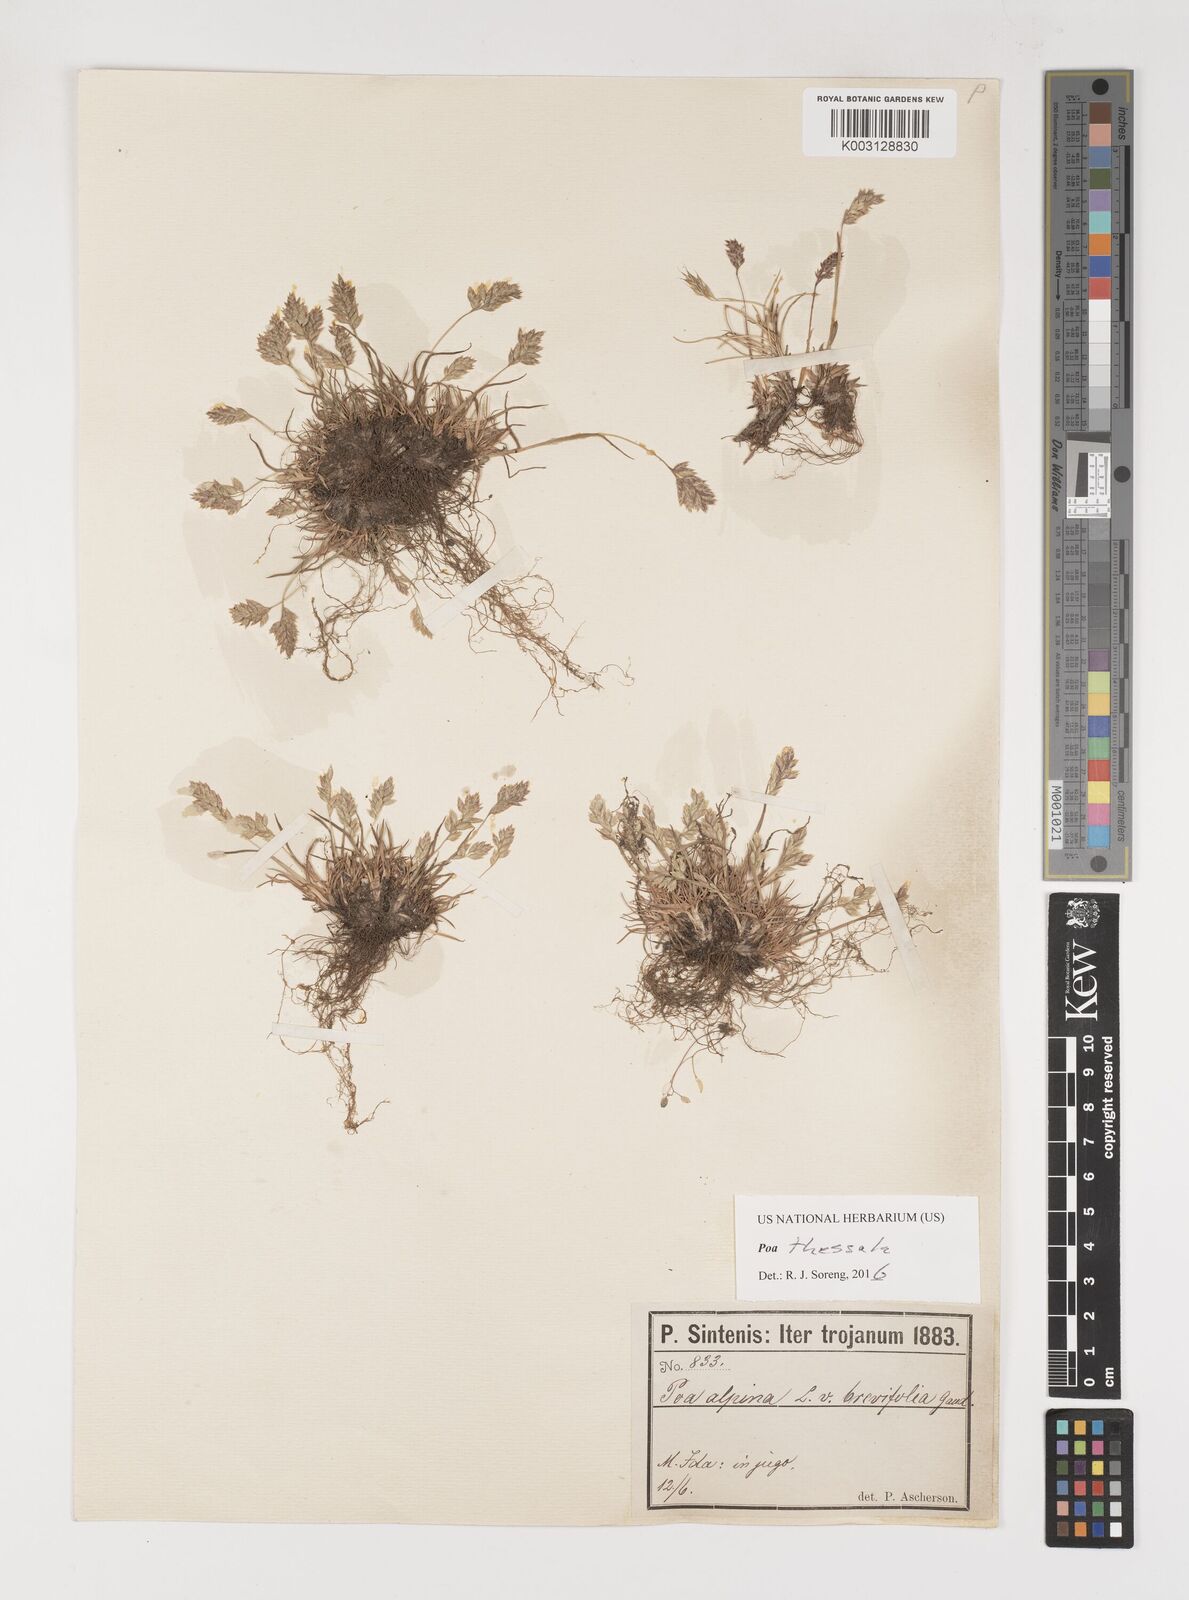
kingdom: Plantae
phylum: Tracheophyta
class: Liliopsida
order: Poales
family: Poaceae
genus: Poa
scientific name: Poa thessala
